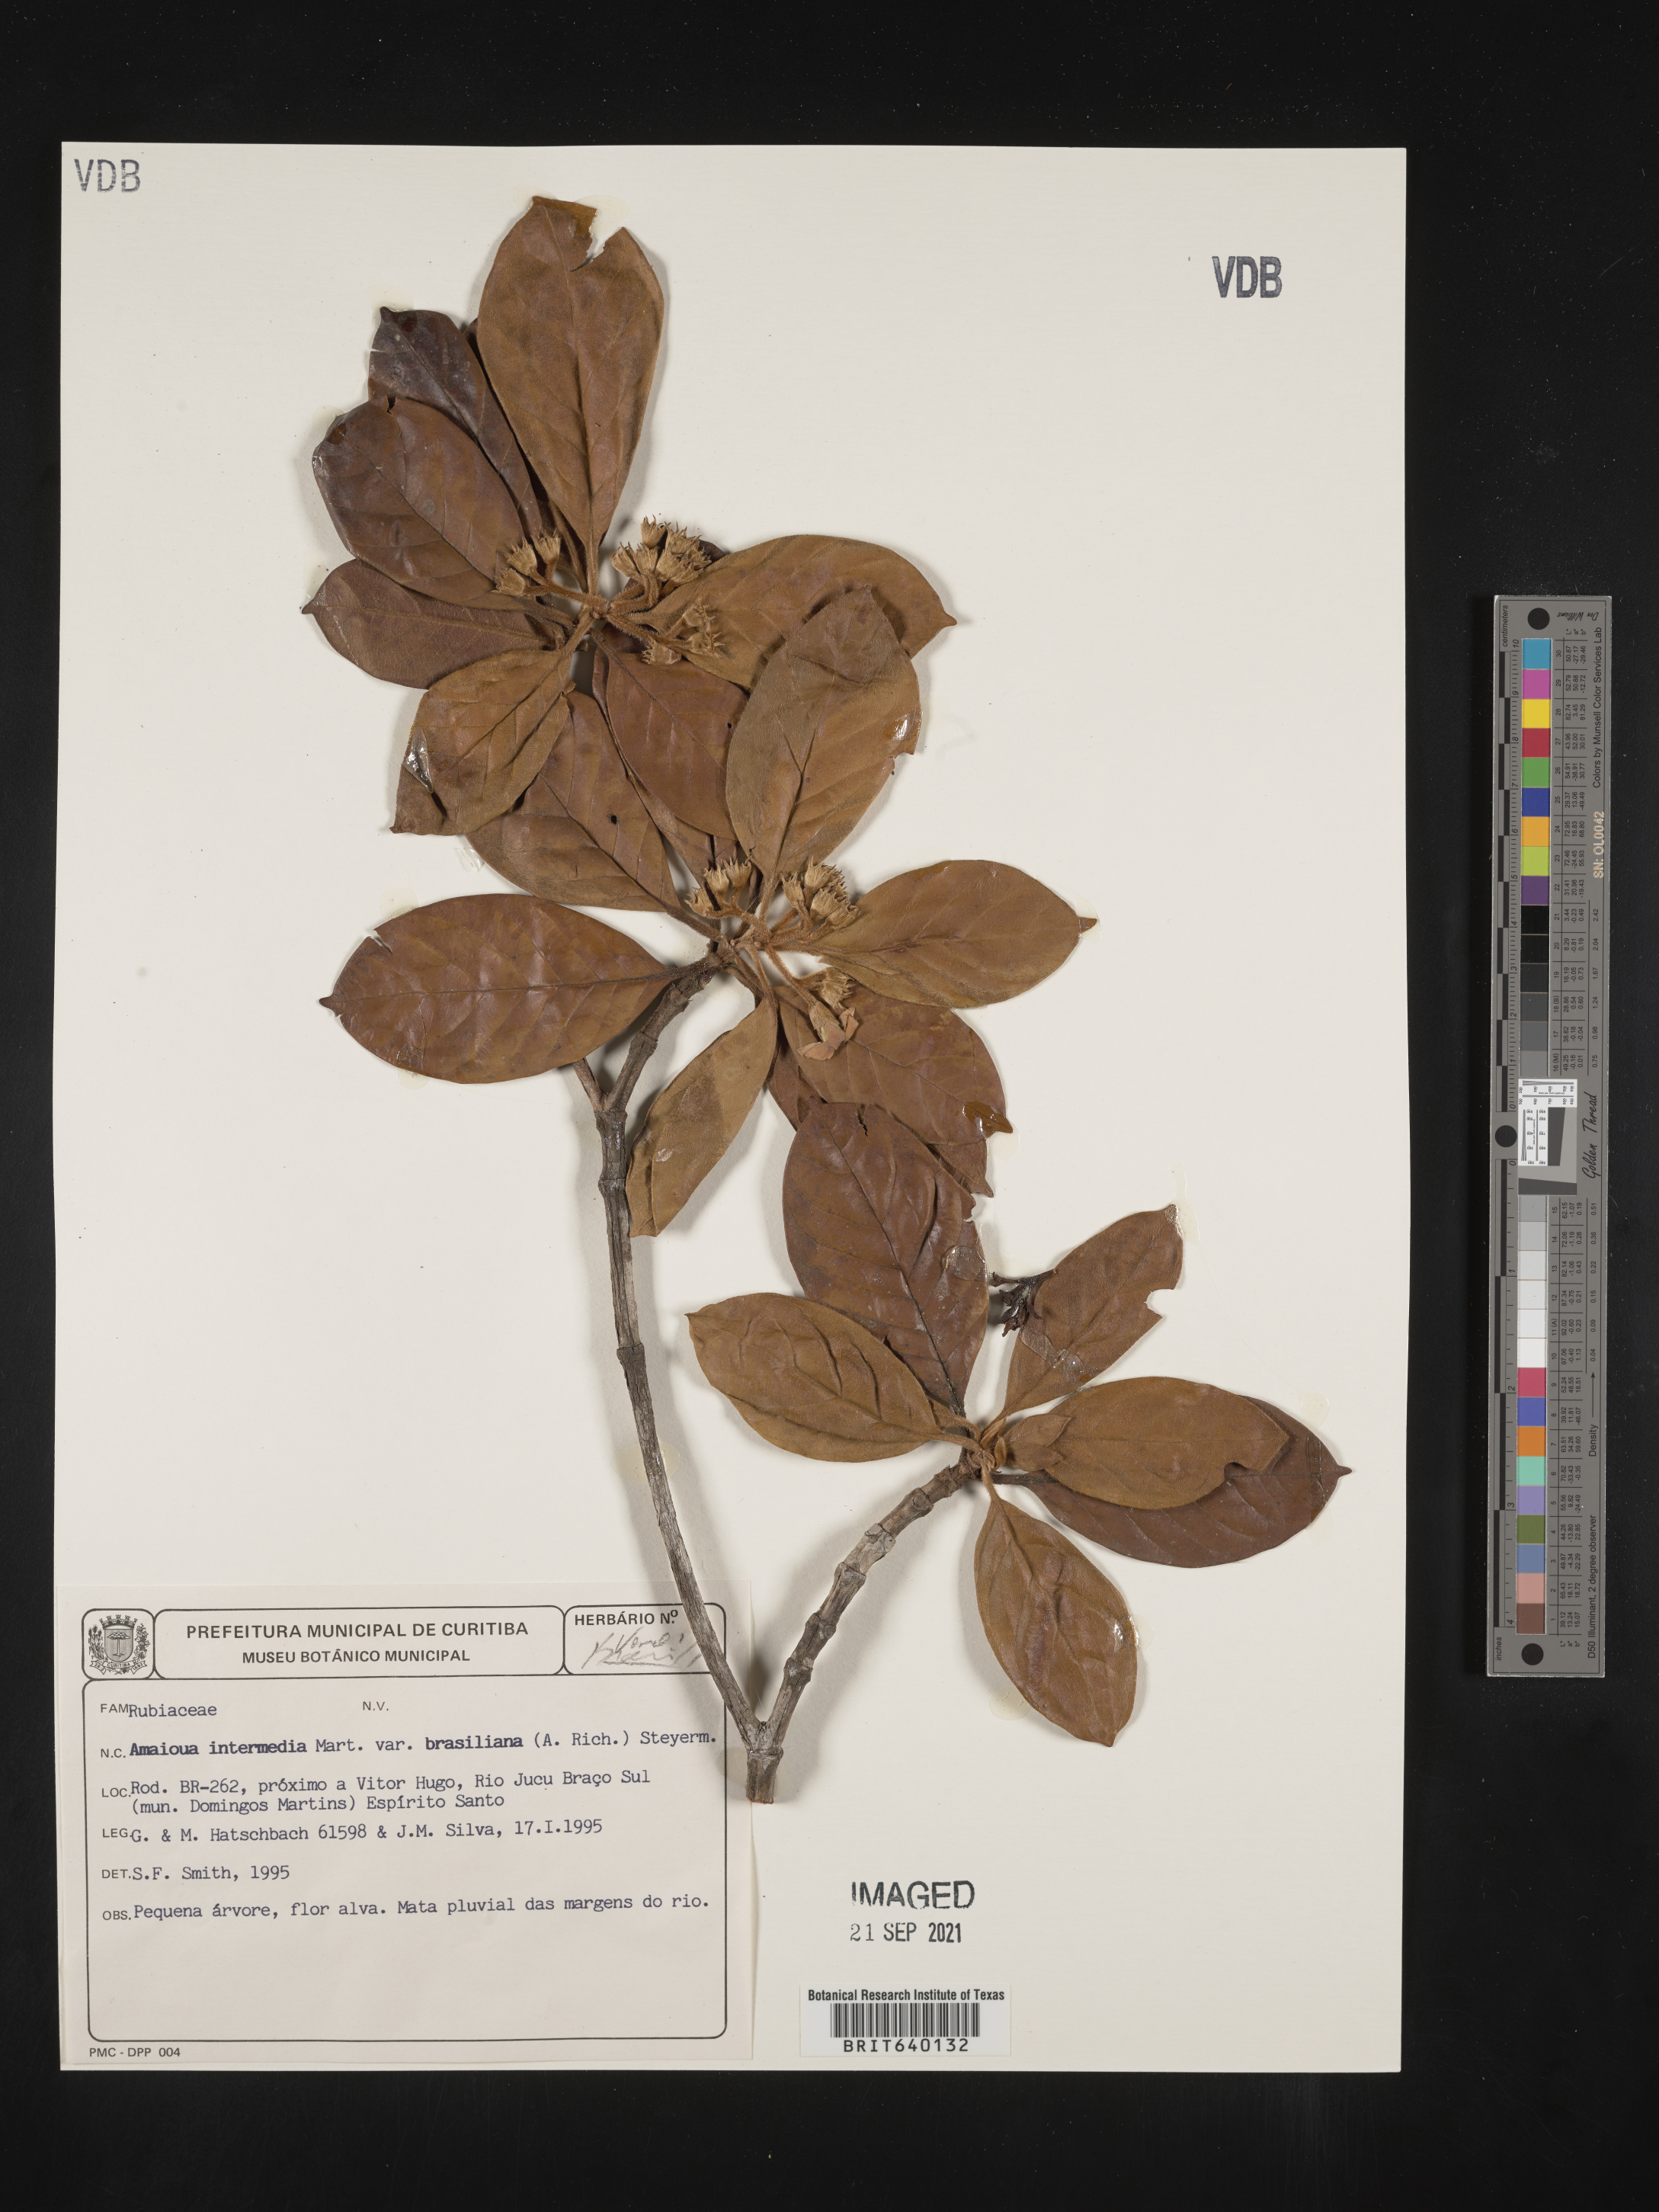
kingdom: Plantae
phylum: Tracheophyta
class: Magnoliopsida
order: Gentianales
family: Rubiaceae
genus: Amaioua
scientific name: Amaioua
